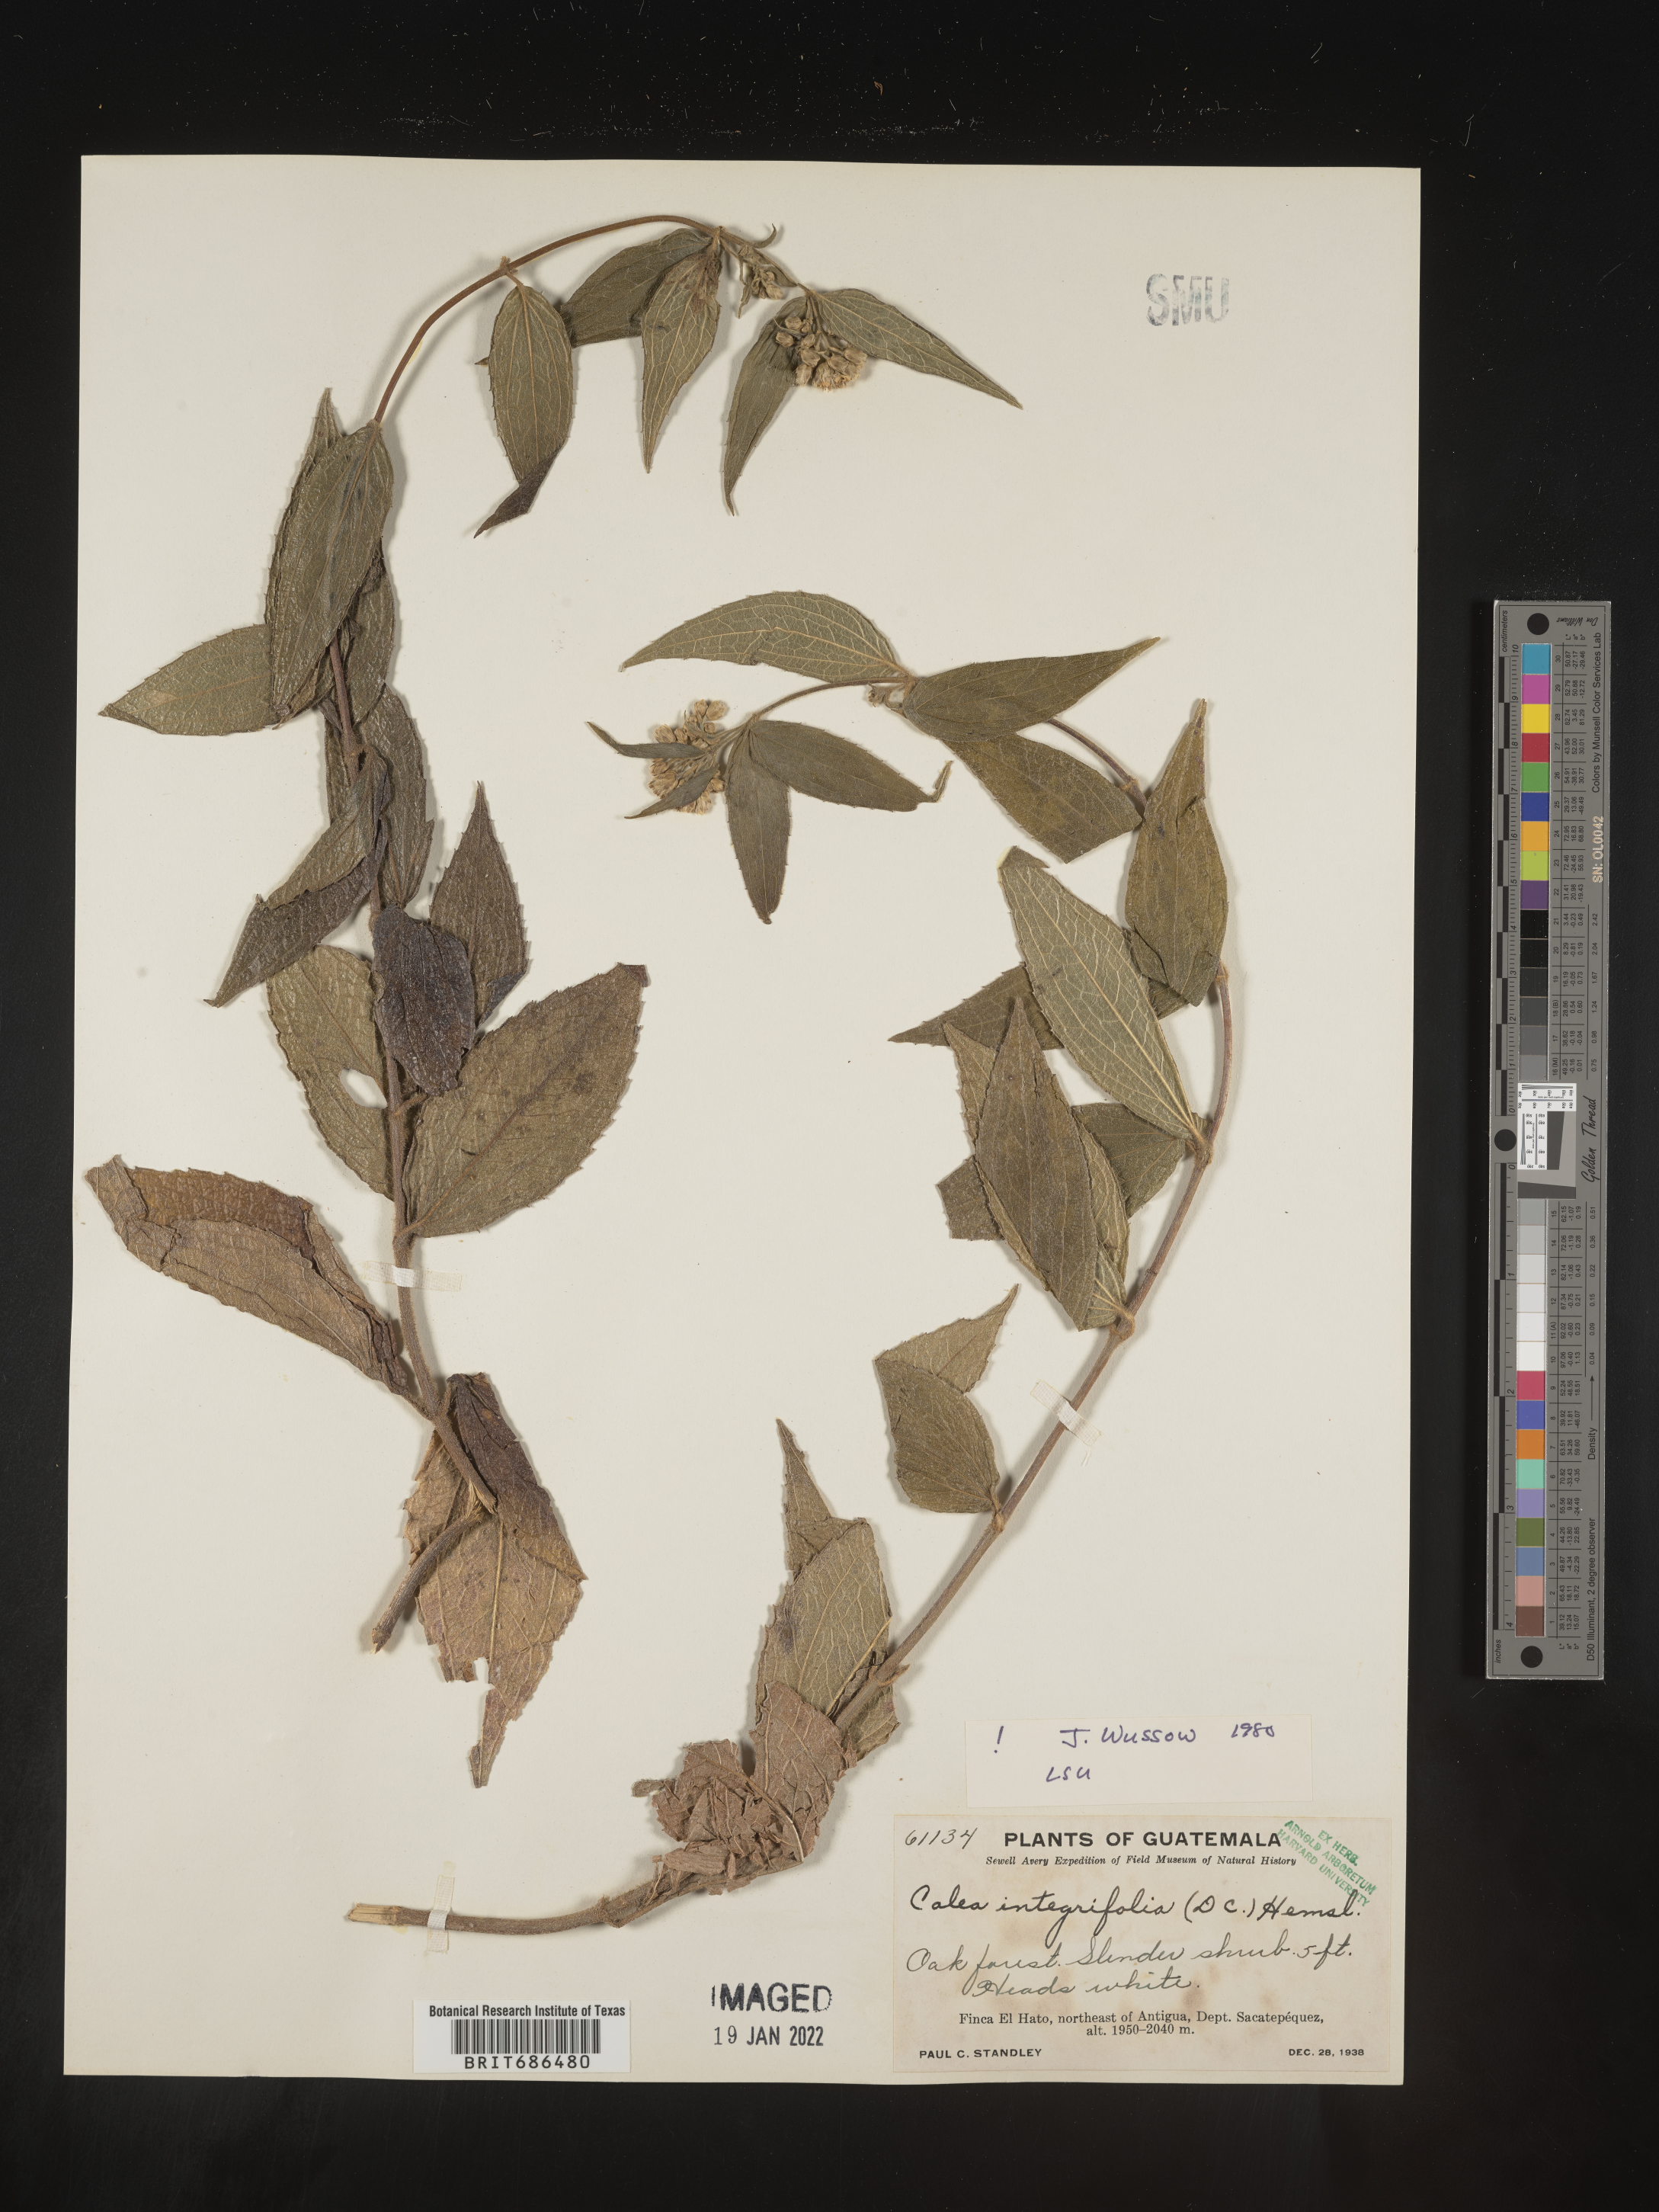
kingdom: Plantae
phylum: Tracheophyta
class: Magnoliopsida
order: Asterales
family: Asteraceae
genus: Alloispermum
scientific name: Alloispermum integrifolium
